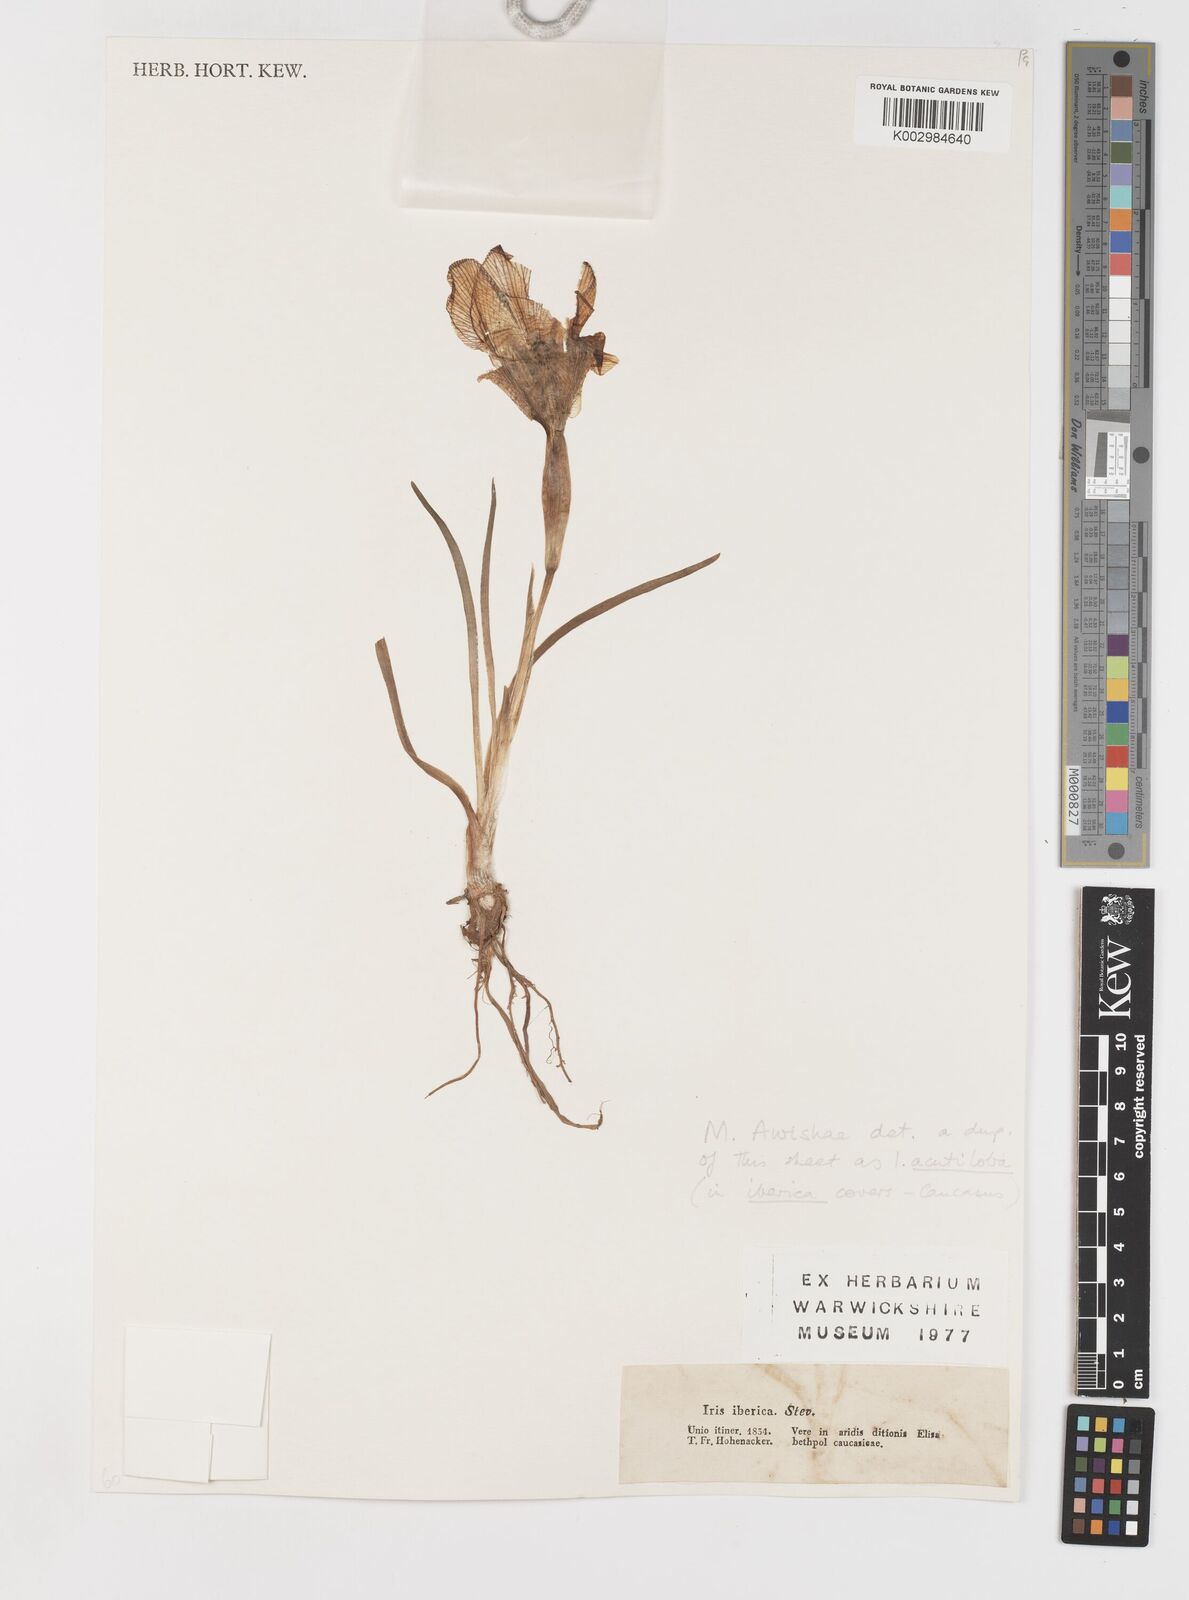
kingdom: Plantae
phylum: Tracheophyta
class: Liliopsida
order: Asparagales
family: Iridaceae
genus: Iris
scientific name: Iris acutiloba
